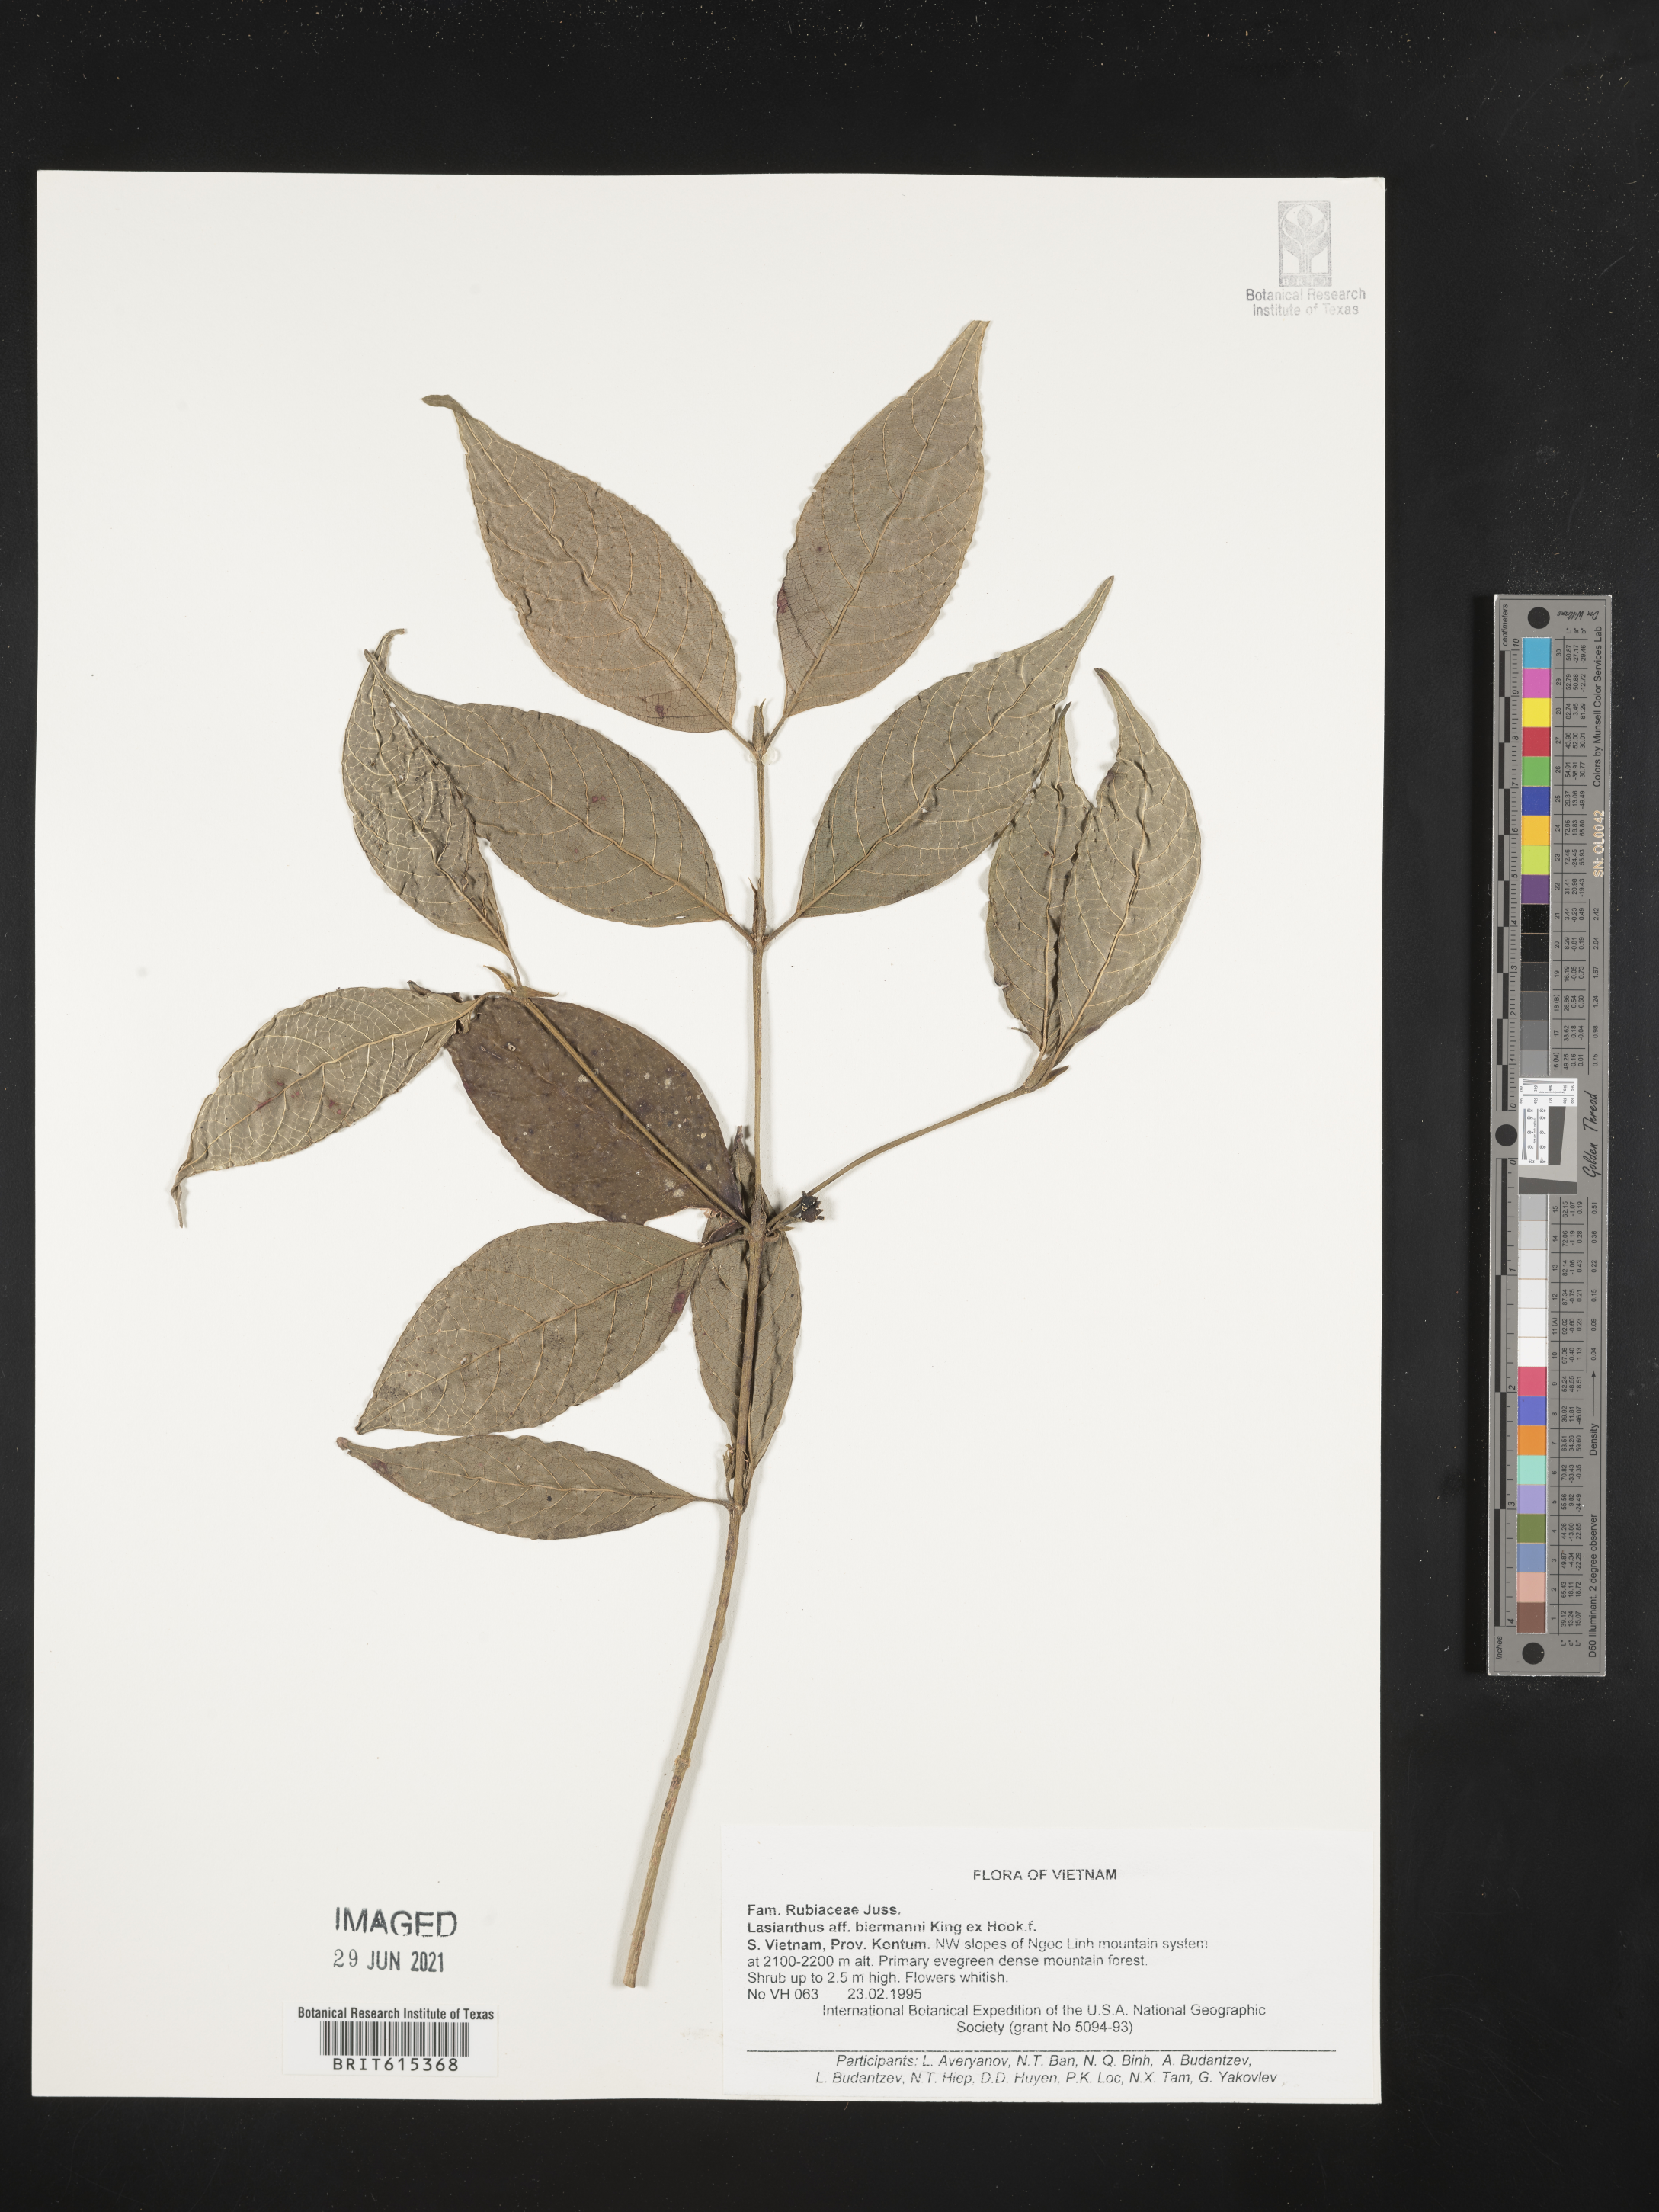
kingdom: Plantae
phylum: Tracheophyta
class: Magnoliopsida
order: Gentianales
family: Rubiaceae
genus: Lasianthus
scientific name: Lasianthus biermannii
